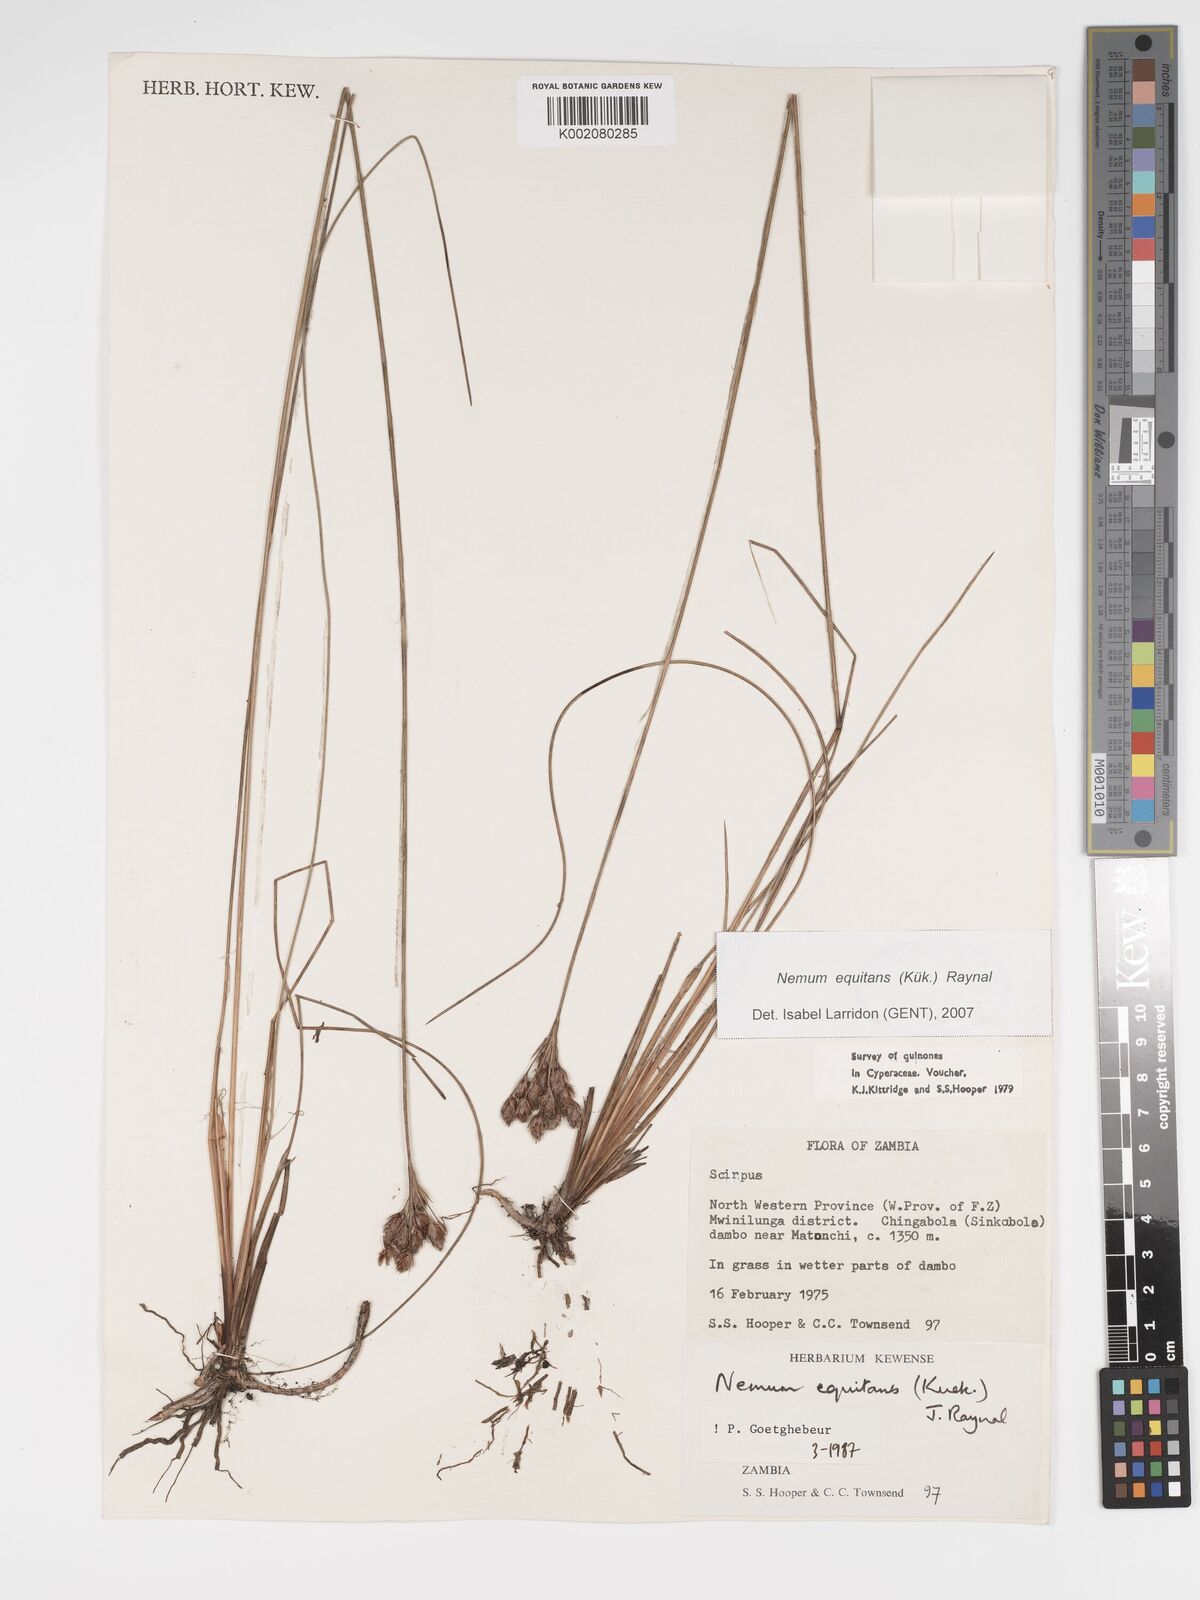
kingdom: Plantae
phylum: Tracheophyta
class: Liliopsida
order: Poales
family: Cyperaceae
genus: Bulbostylis
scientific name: Bulbostylis equitans
